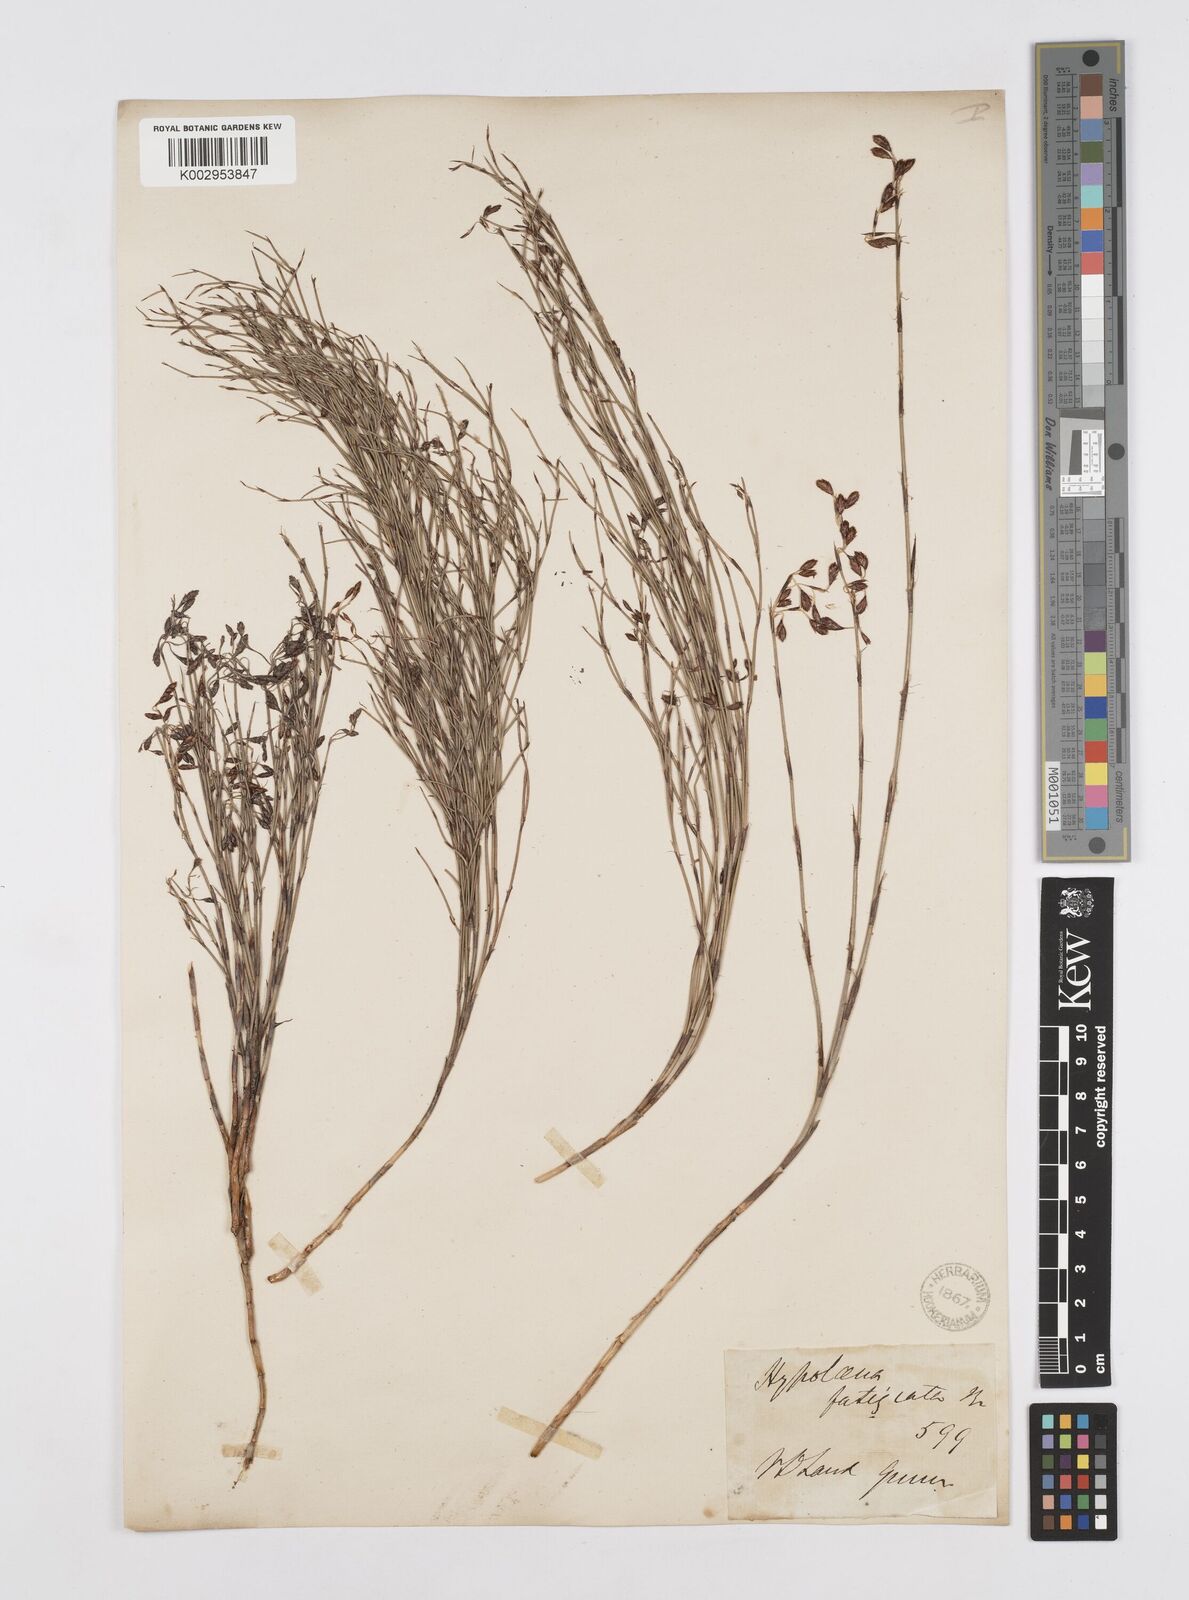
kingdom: Plantae
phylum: Tracheophyta
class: Liliopsida
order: Poales
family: Restionaceae
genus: Hypolaena
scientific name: Hypolaena fastigiata
